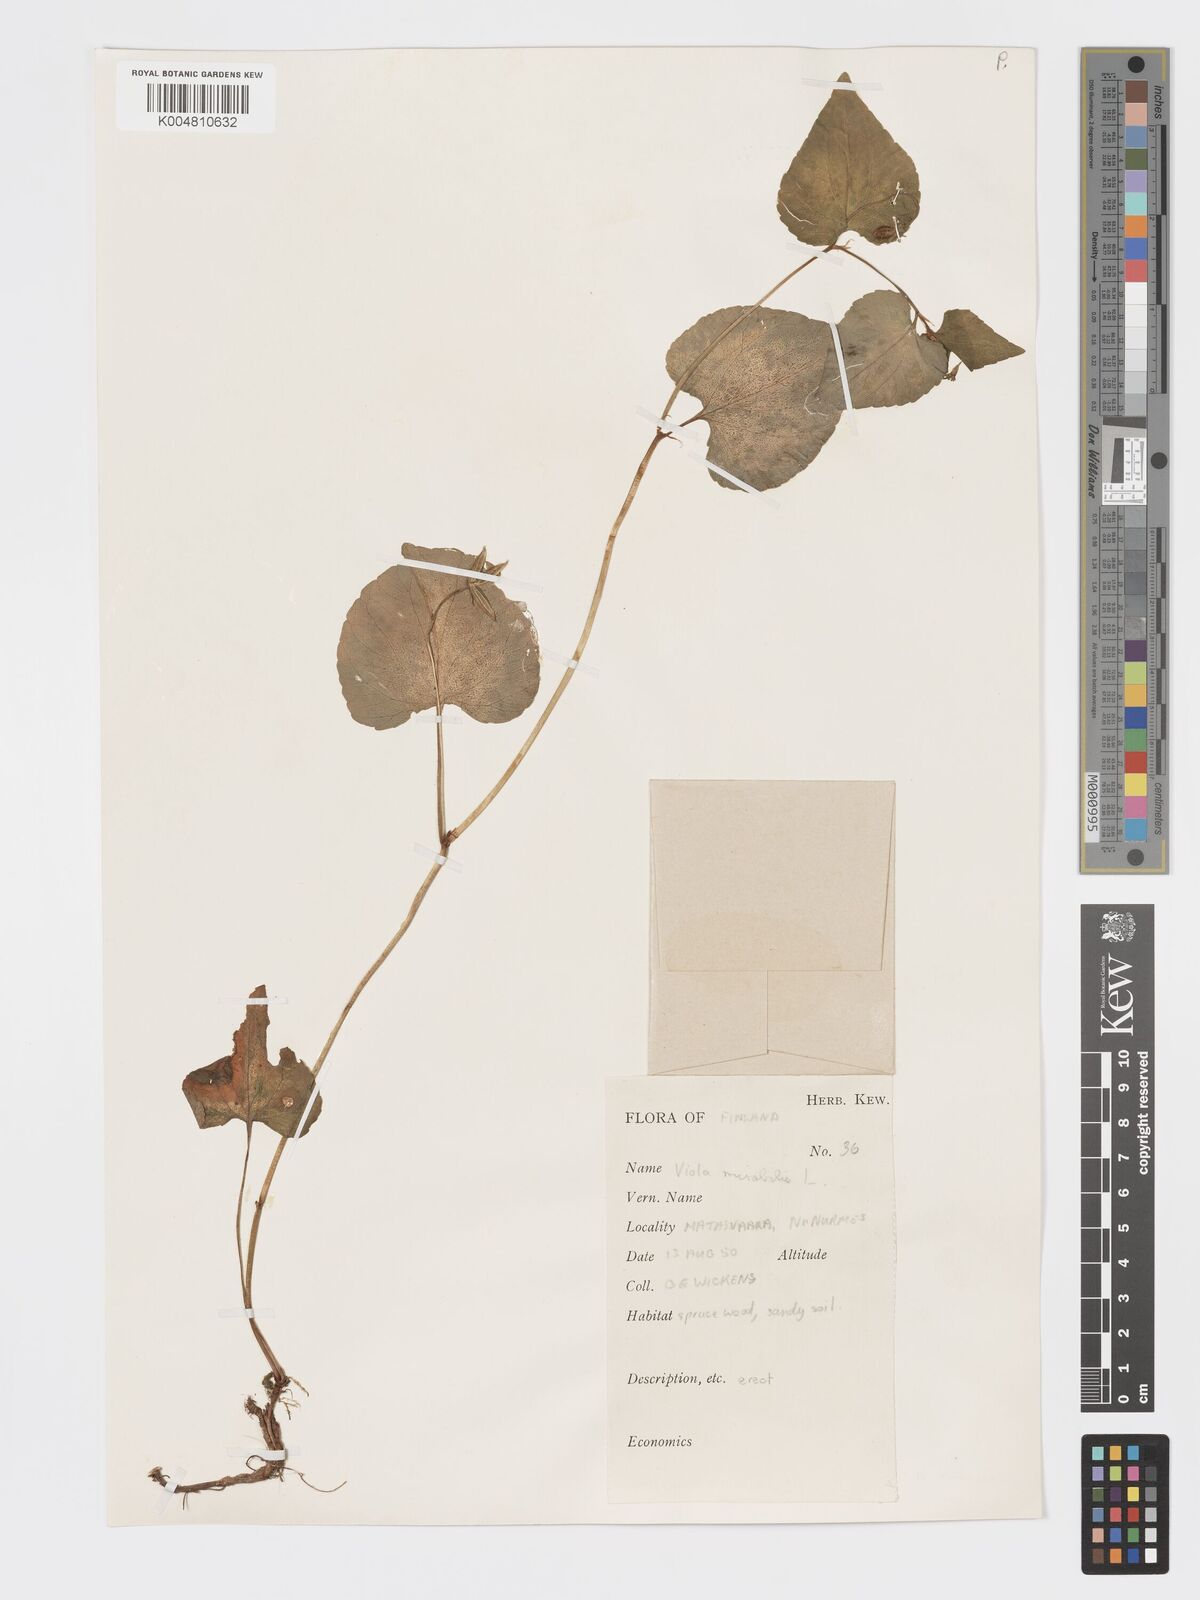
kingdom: Plantae
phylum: Tracheophyta
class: Magnoliopsida
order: Malpighiales
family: Violaceae
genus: Viola
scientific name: Viola mirabilis
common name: Wonder violet
